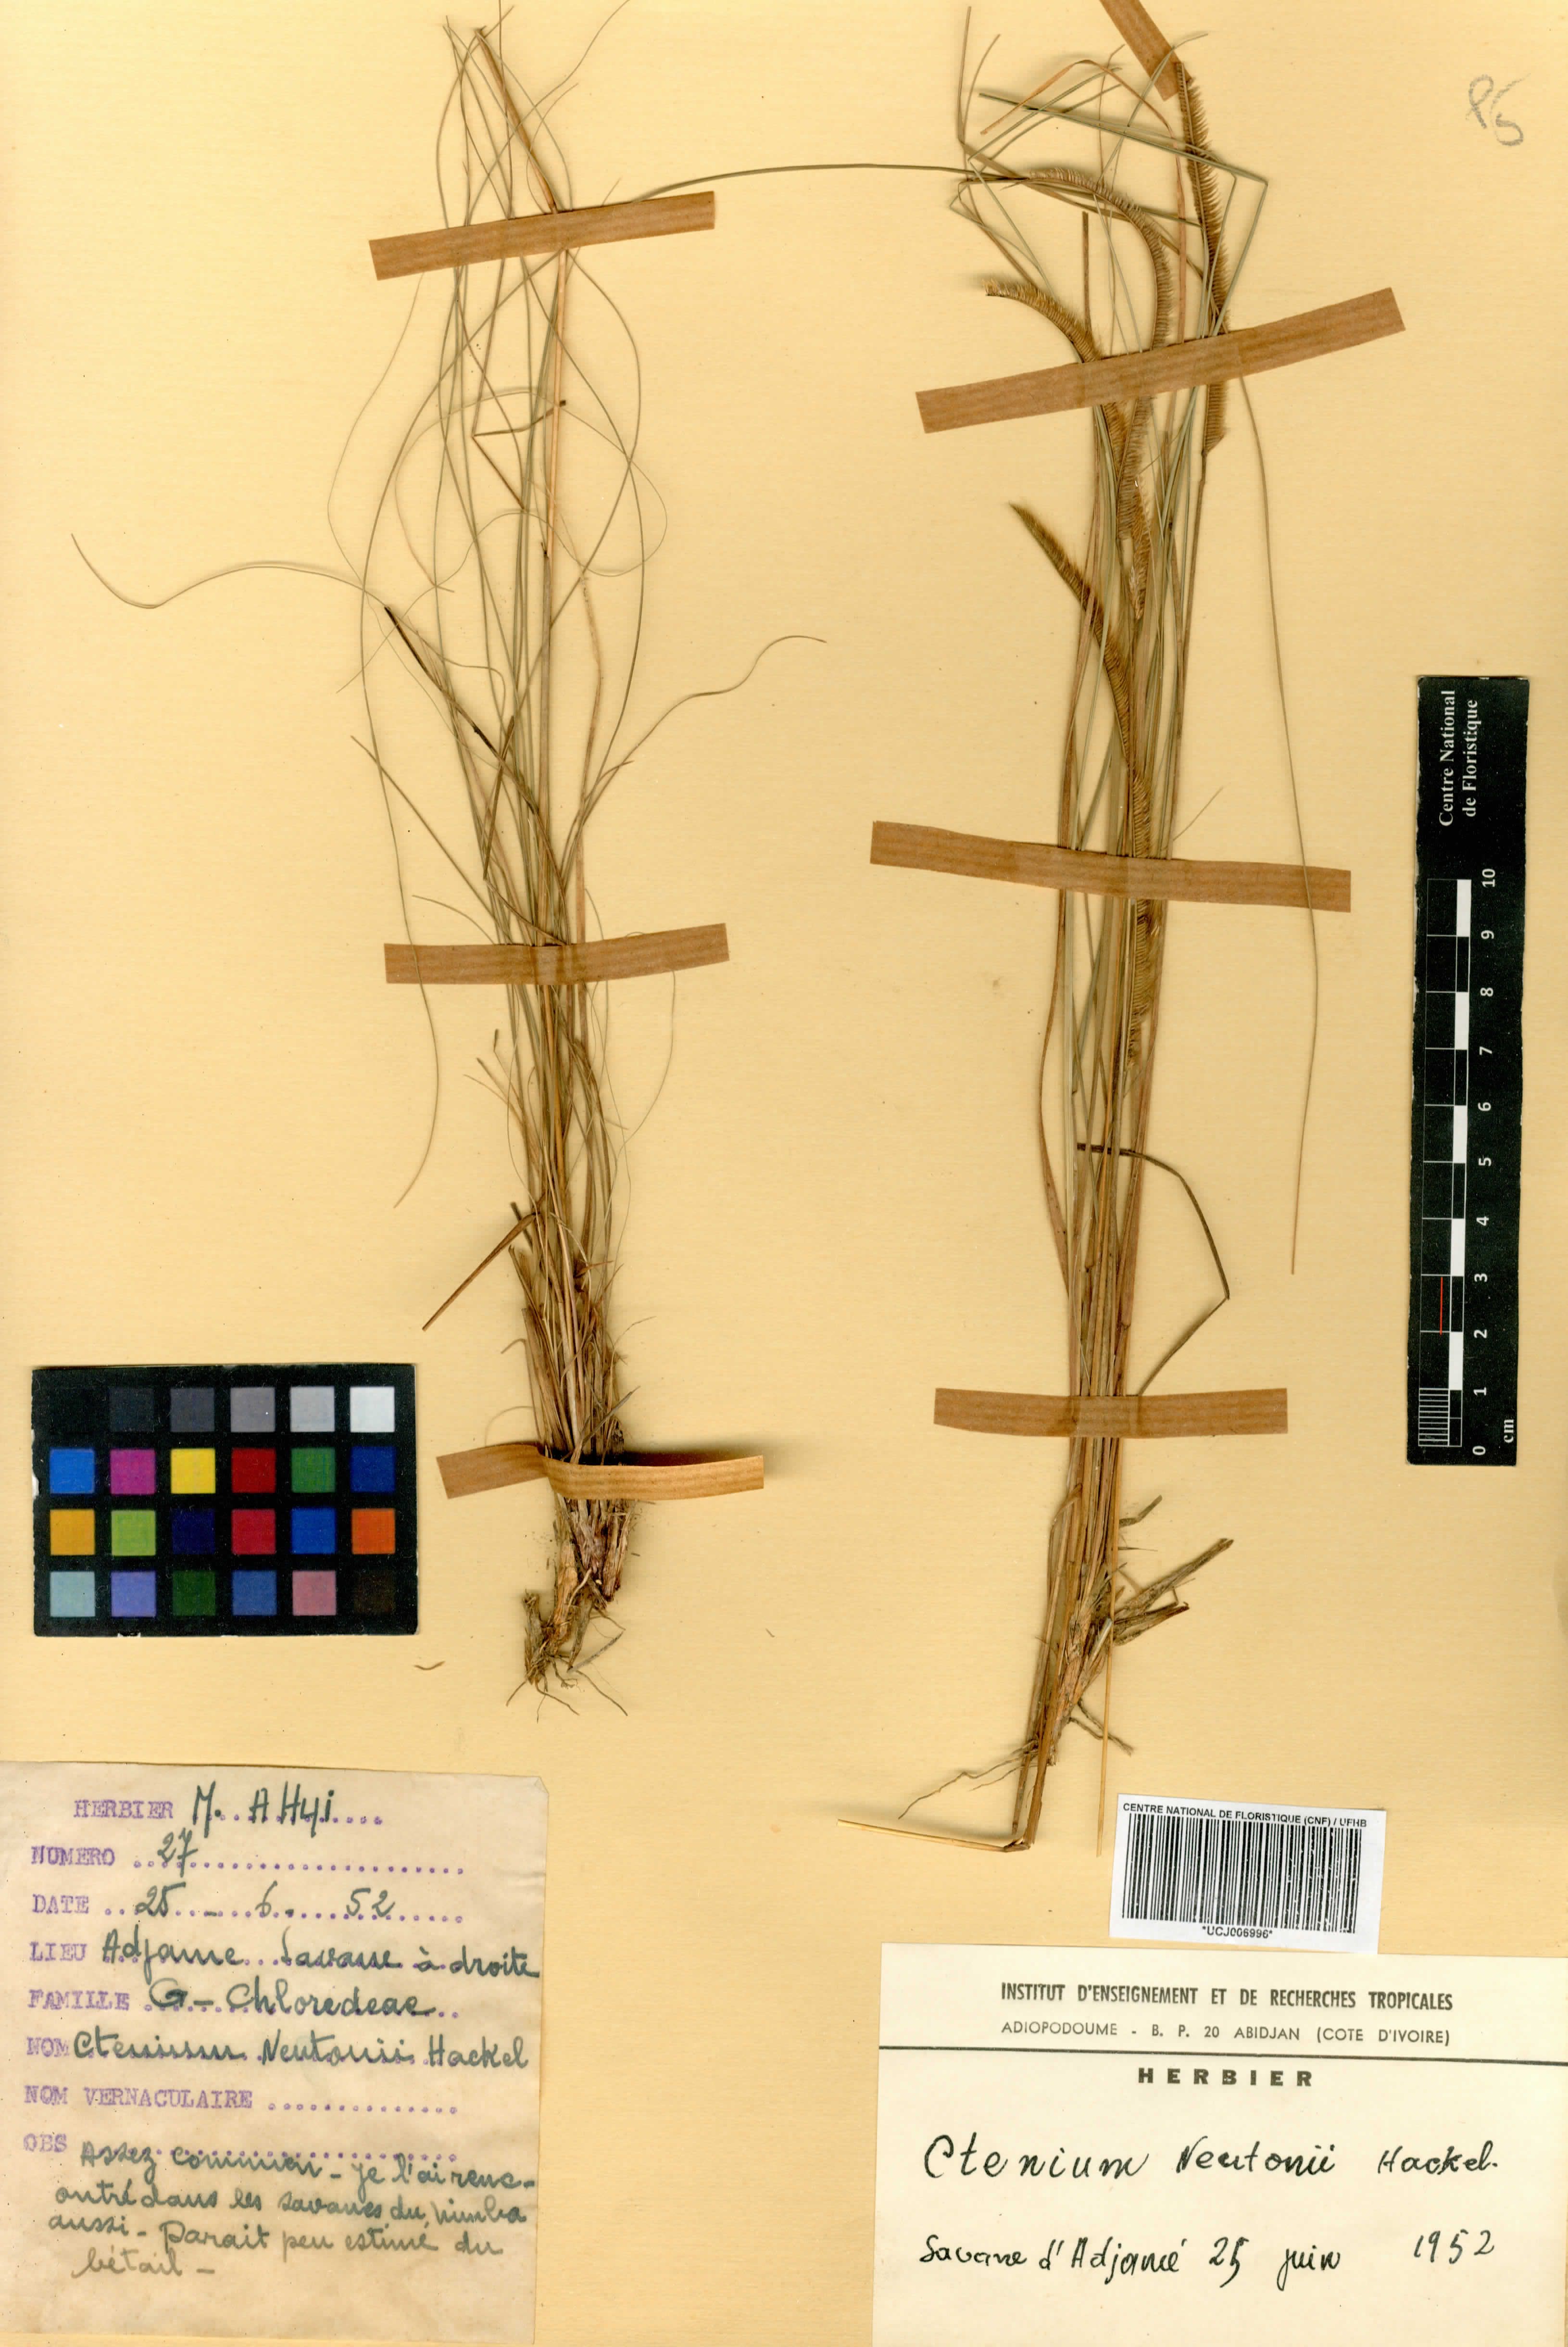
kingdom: Plantae
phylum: Tracheophyta
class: Liliopsida
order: Poales
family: Poaceae
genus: Ctenium
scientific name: Ctenium newtonii
